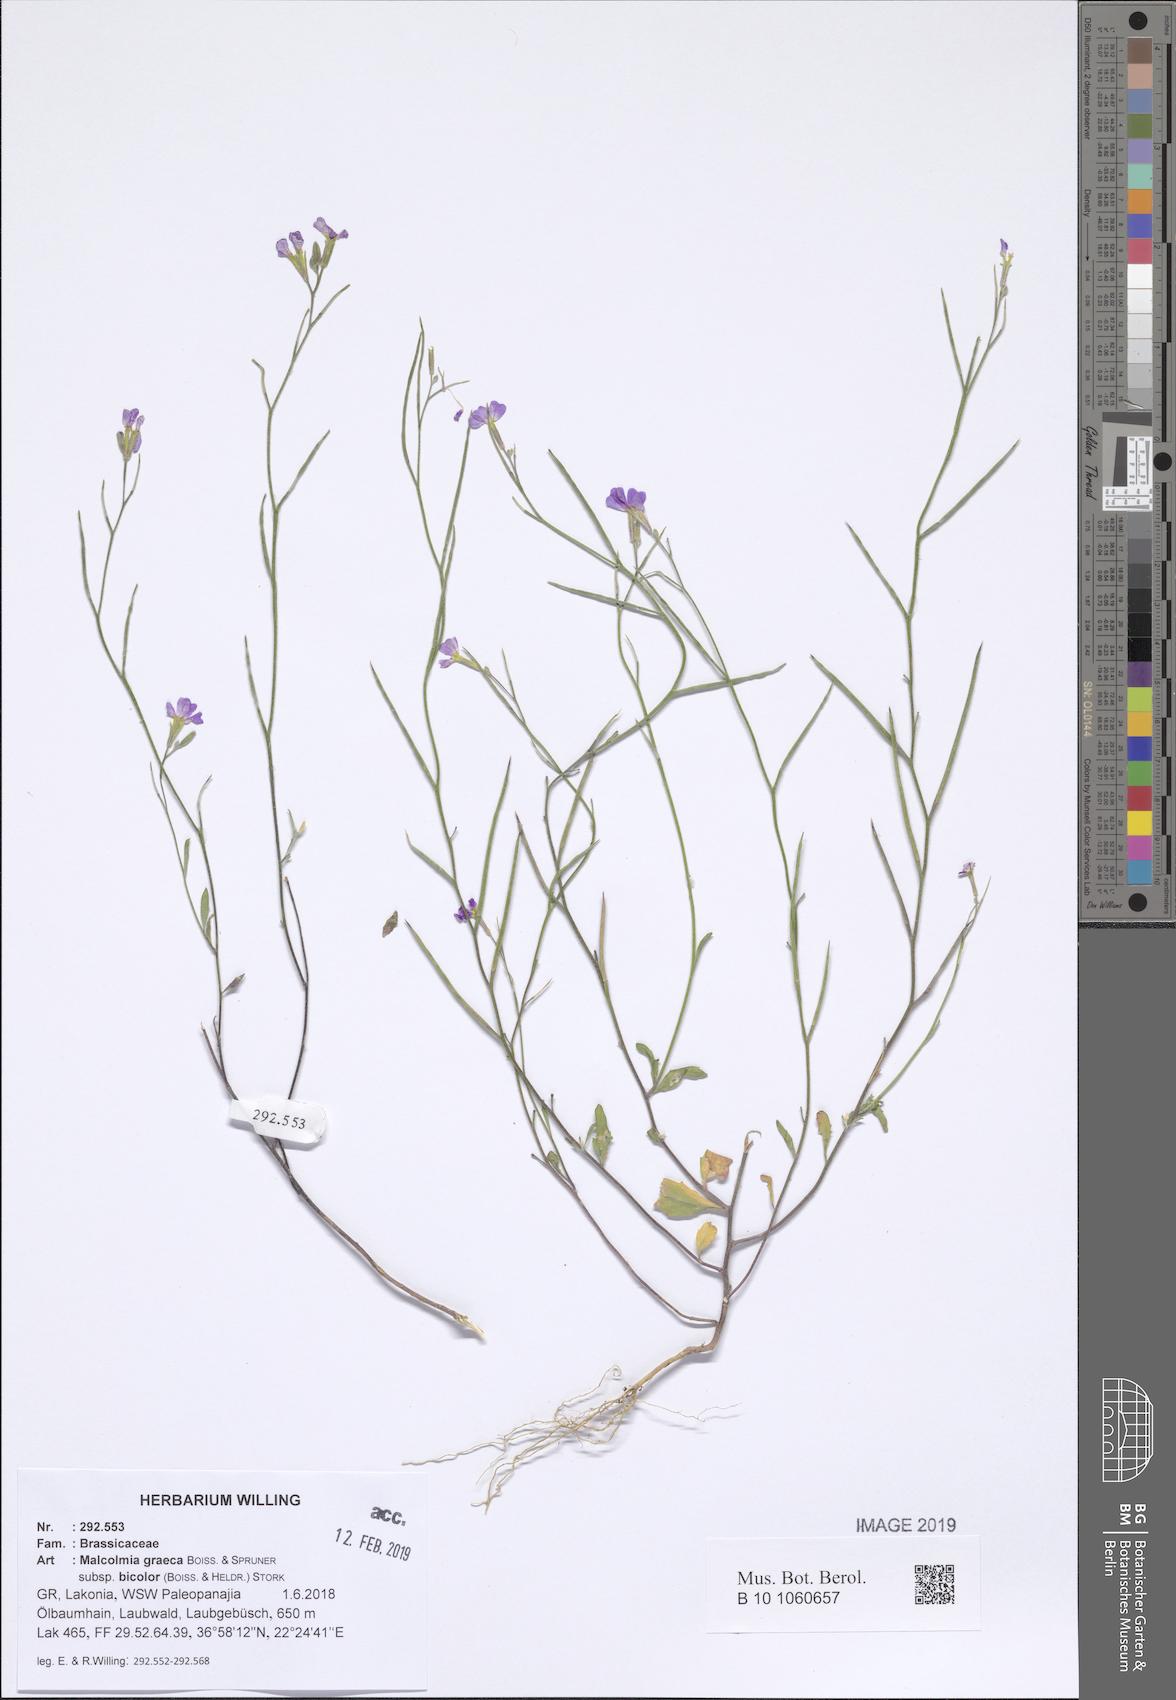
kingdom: Plantae
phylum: Tracheophyta
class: Magnoliopsida
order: Brassicales
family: Brassicaceae
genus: Malcolmia
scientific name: Malcolmia graeca
